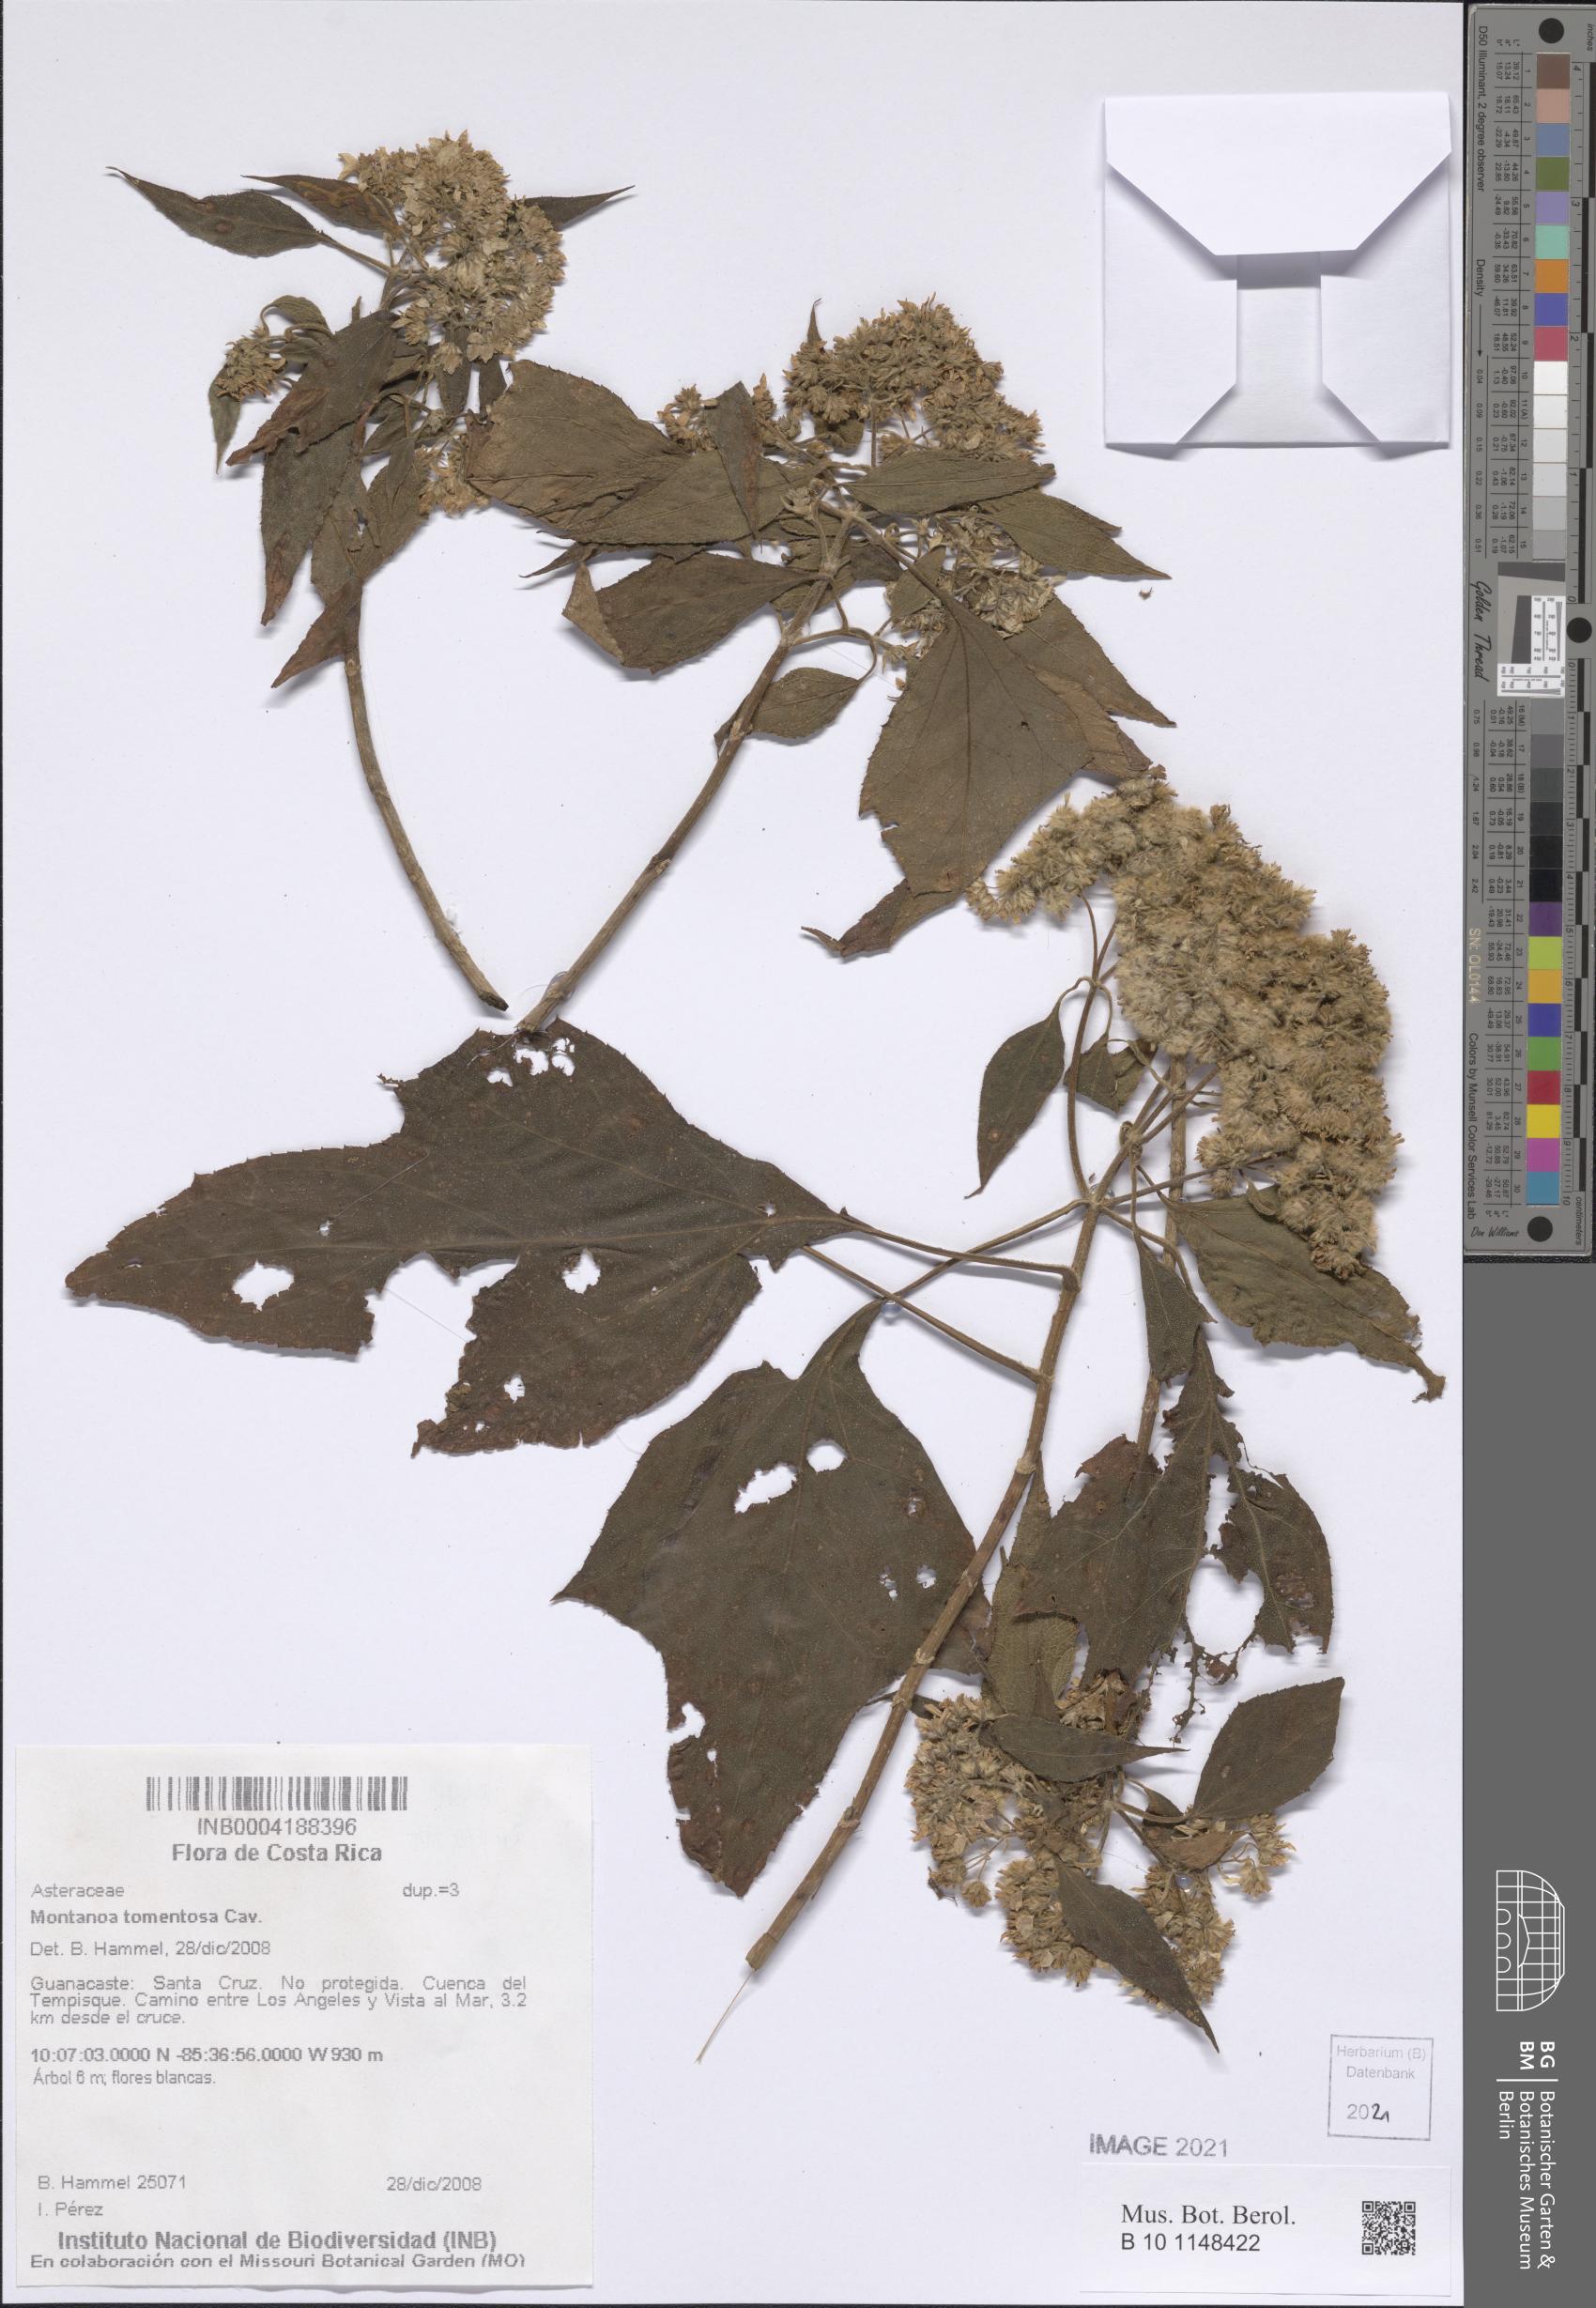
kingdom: Plantae
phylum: Tracheophyta
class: Magnoliopsida
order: Asterales
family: Asteraceae
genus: Montanoa
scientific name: Montanoa tomentosa
